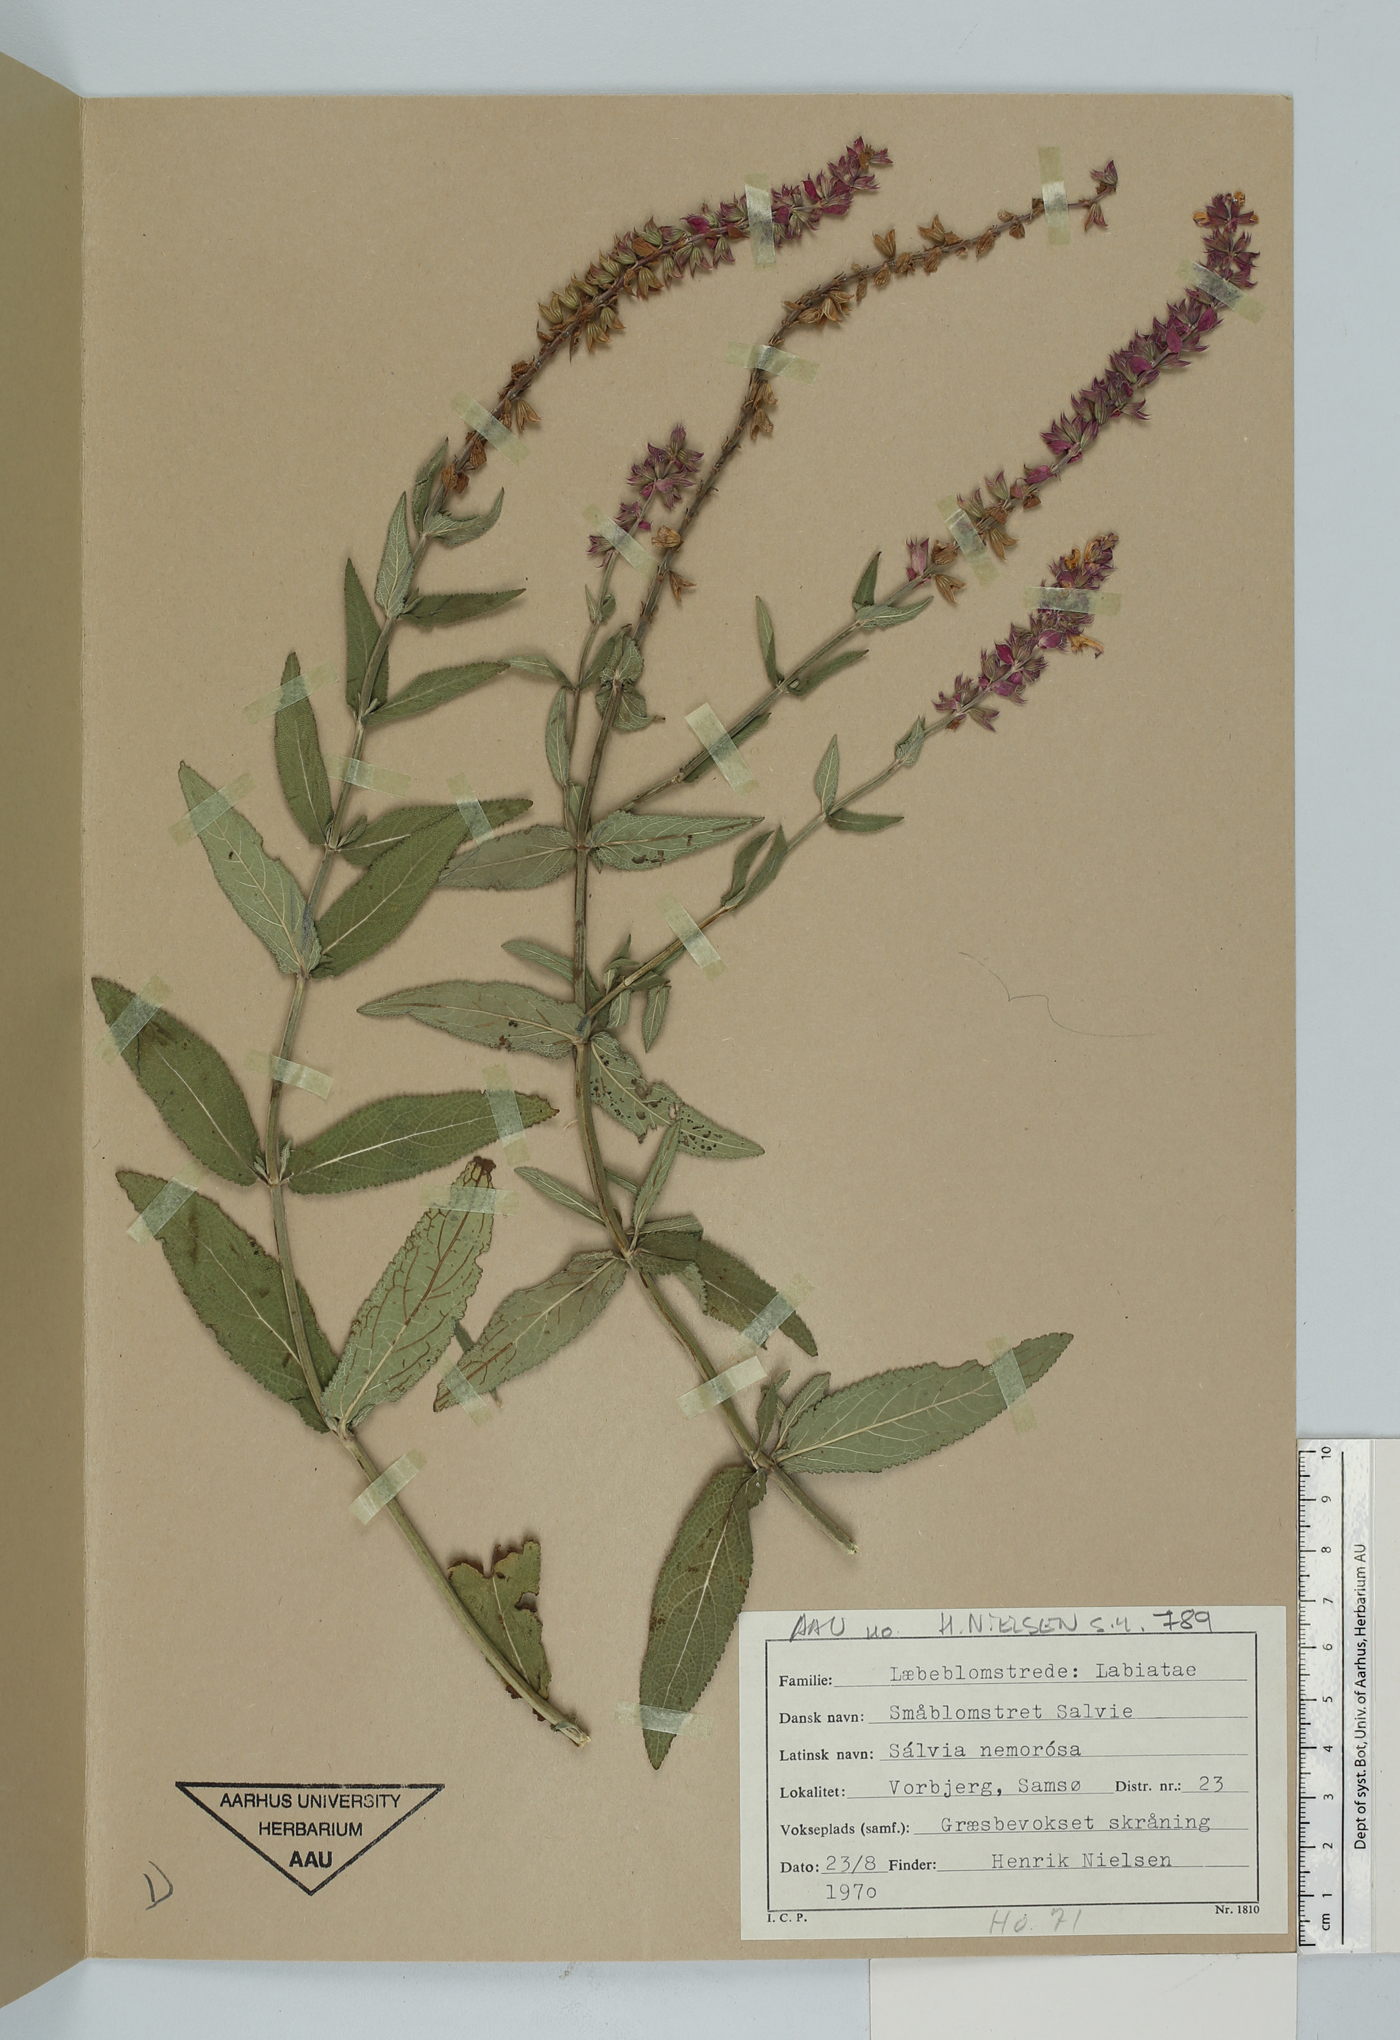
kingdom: Plantae
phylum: Tracheophyta
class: Magnoliopsida
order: Lamiales
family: Lamiaceae
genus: Salvia
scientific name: Salvia nemorosa
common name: Balkan clary
